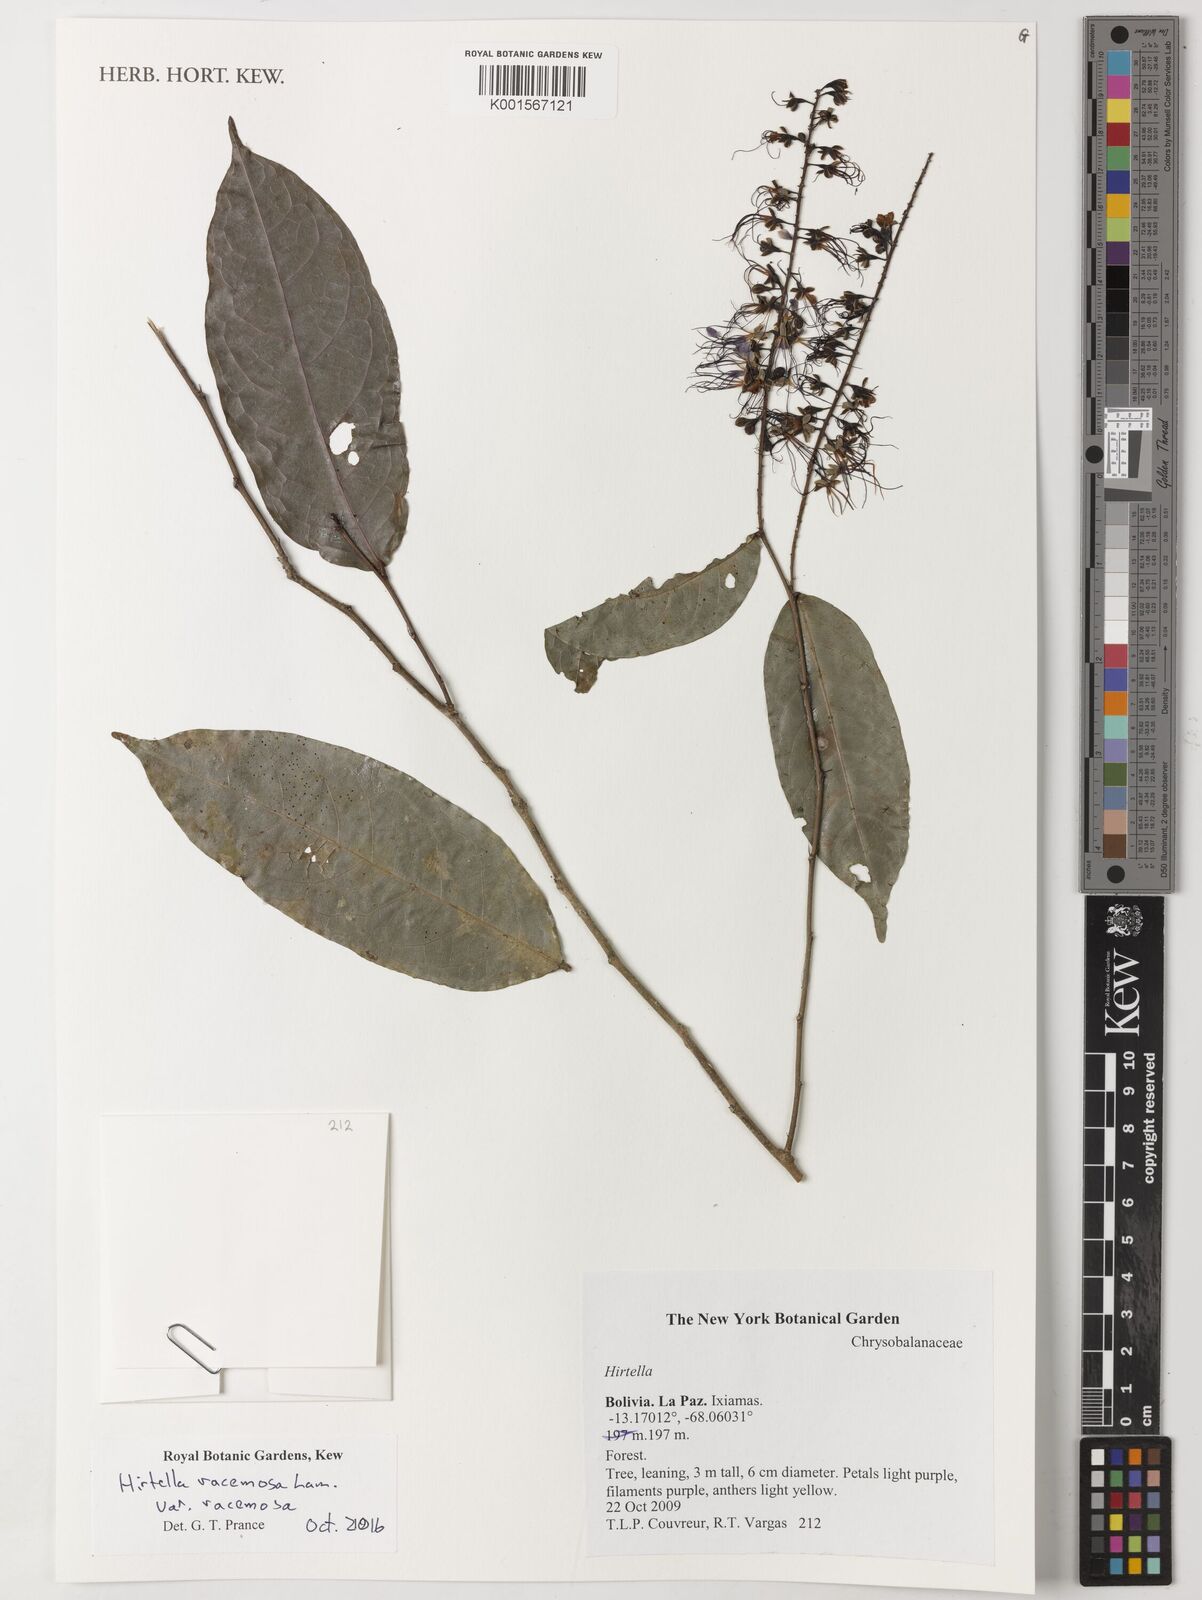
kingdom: Plantae
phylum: Tracheophyta
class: Magnoliopsida
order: Malpighiales
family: Chrysobalanaceae
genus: Hirtella
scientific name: Hirtella racemosa
